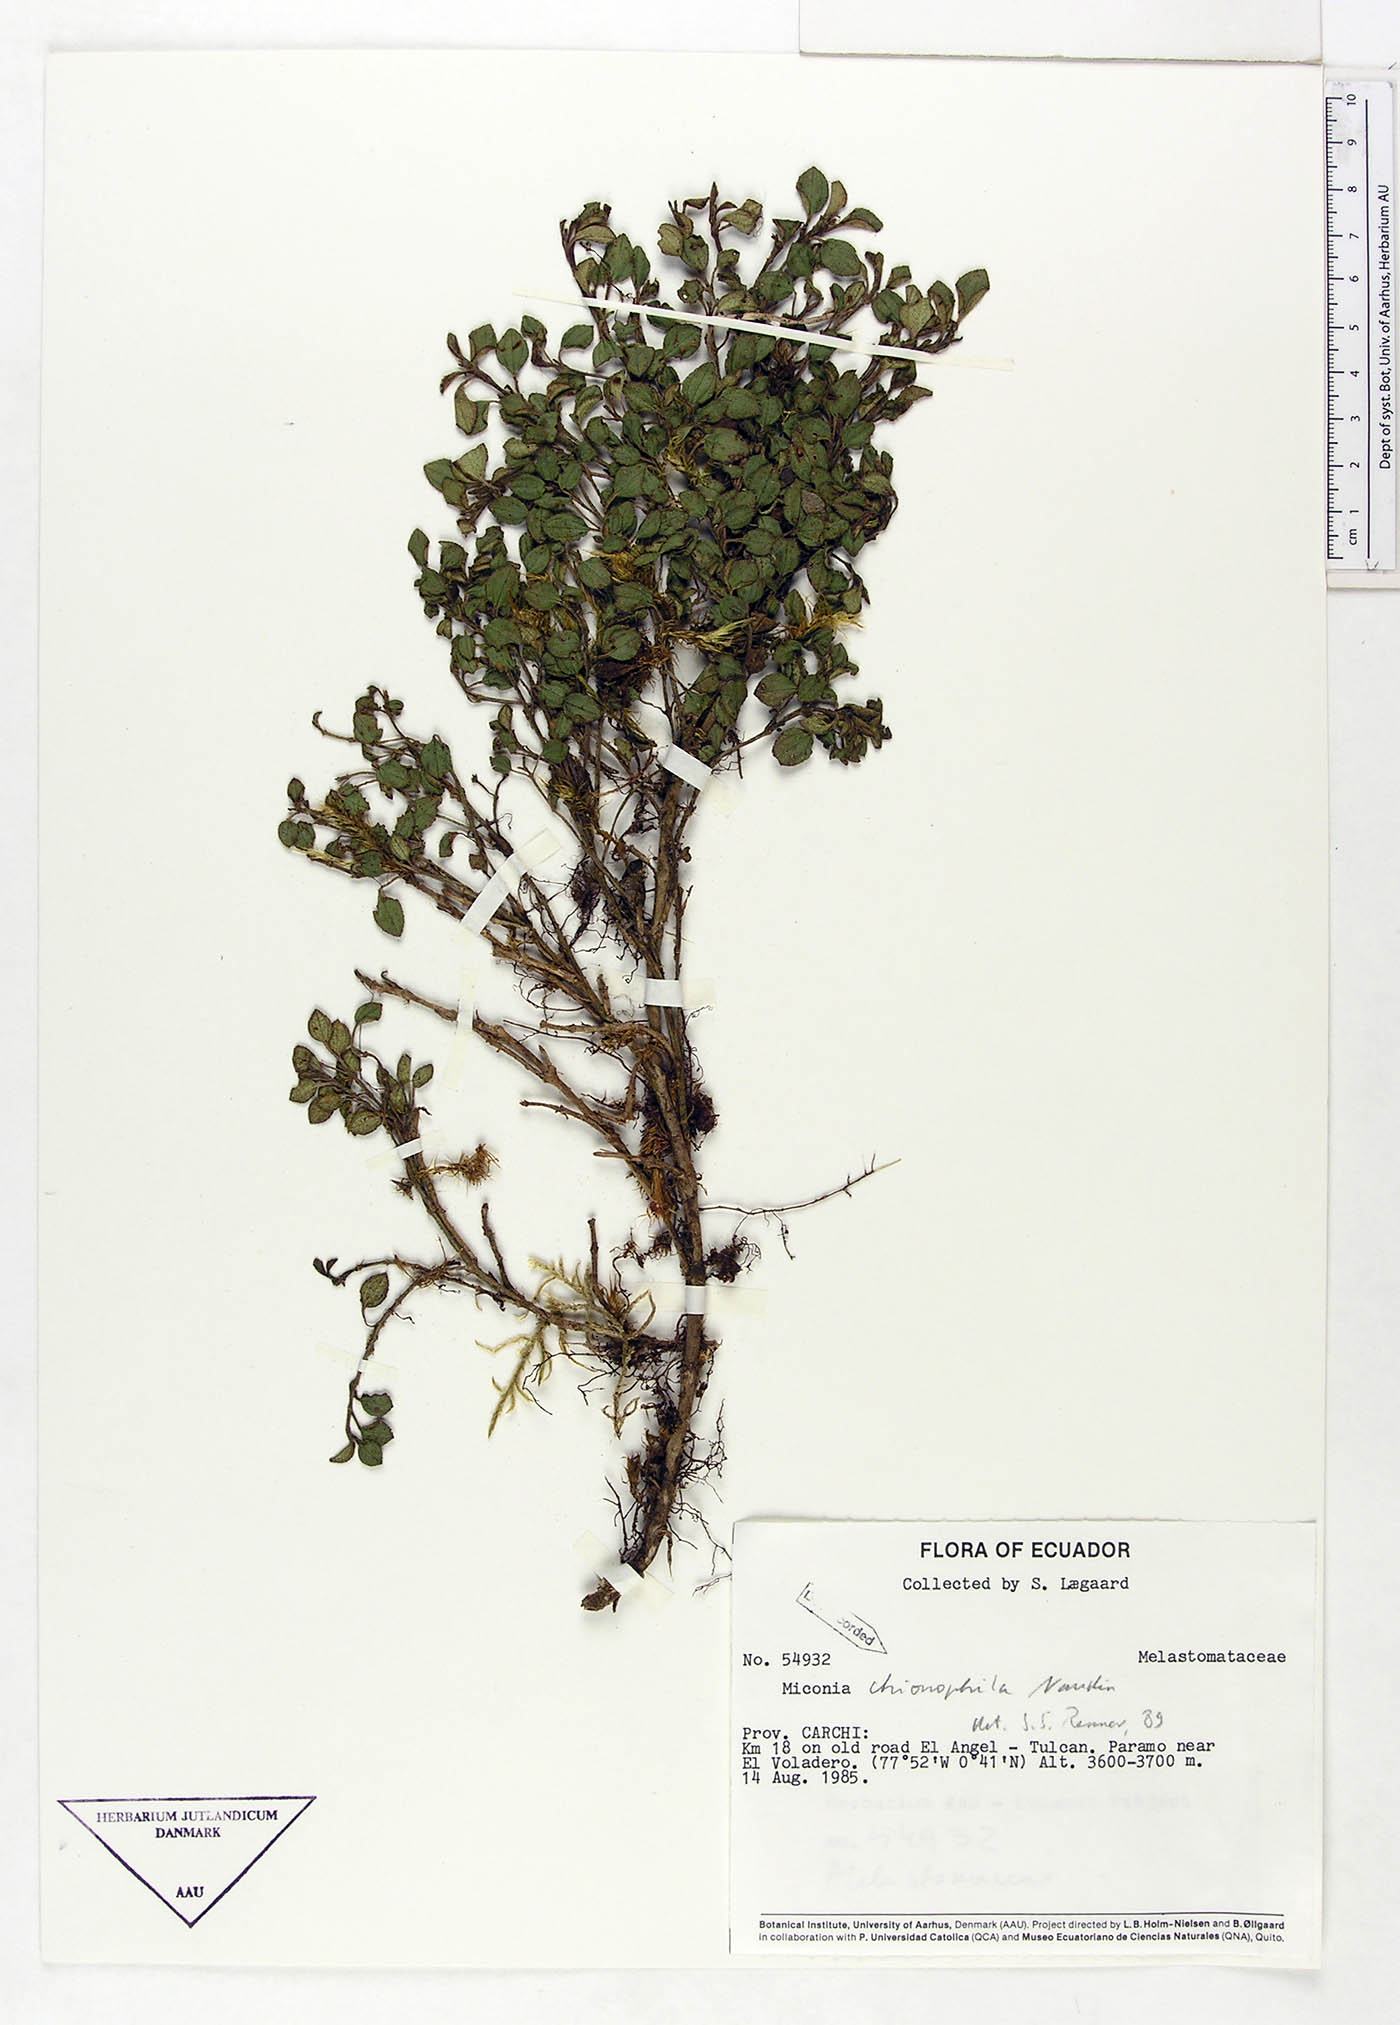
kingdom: Plantae
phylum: Tracheophyta
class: Magnoliopsida
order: Myrtales
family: Melastomataceae
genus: Miconia
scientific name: Miconia chionophila
